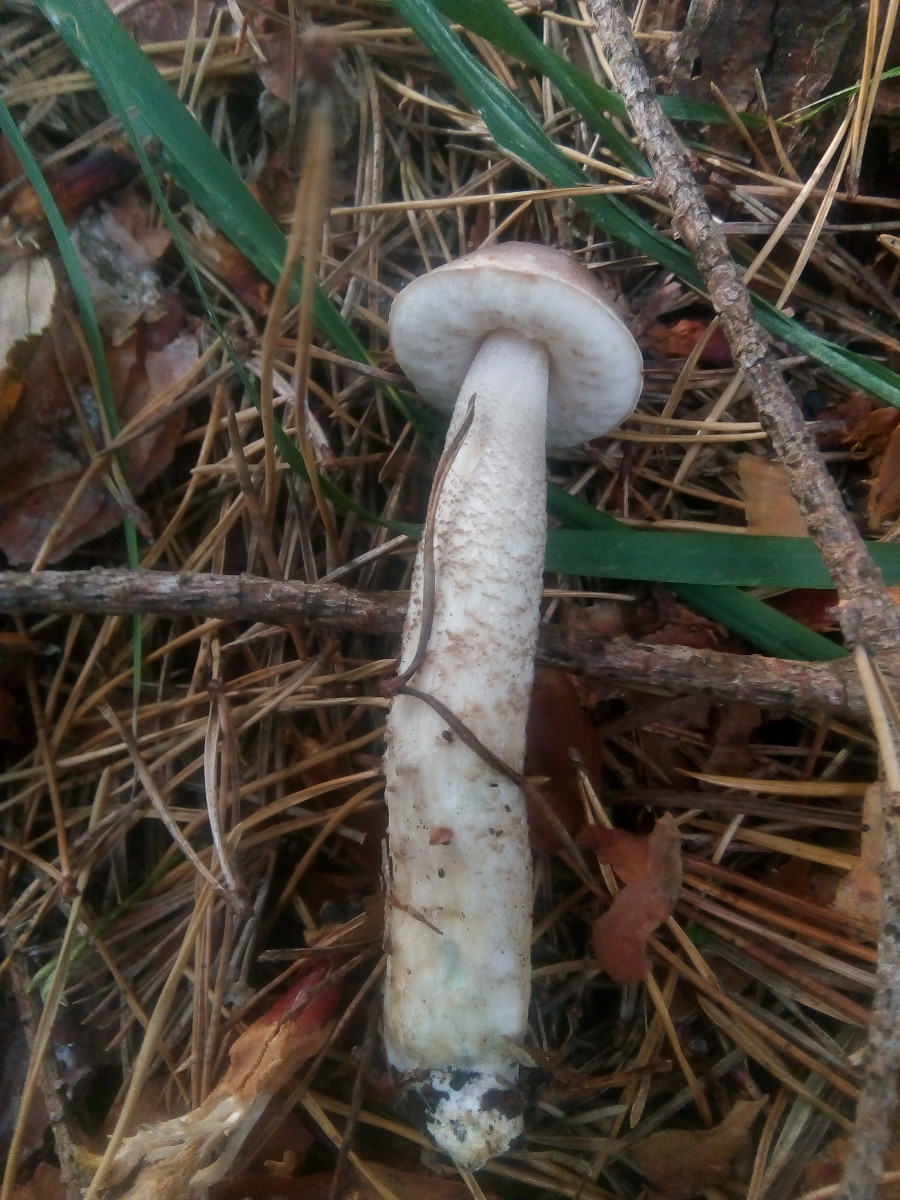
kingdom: Fungi
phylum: Basidiomycota
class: Agaricomycetes
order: Boletales
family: Boletaceae
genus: Leccinum
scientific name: Leccinum schistophilum
